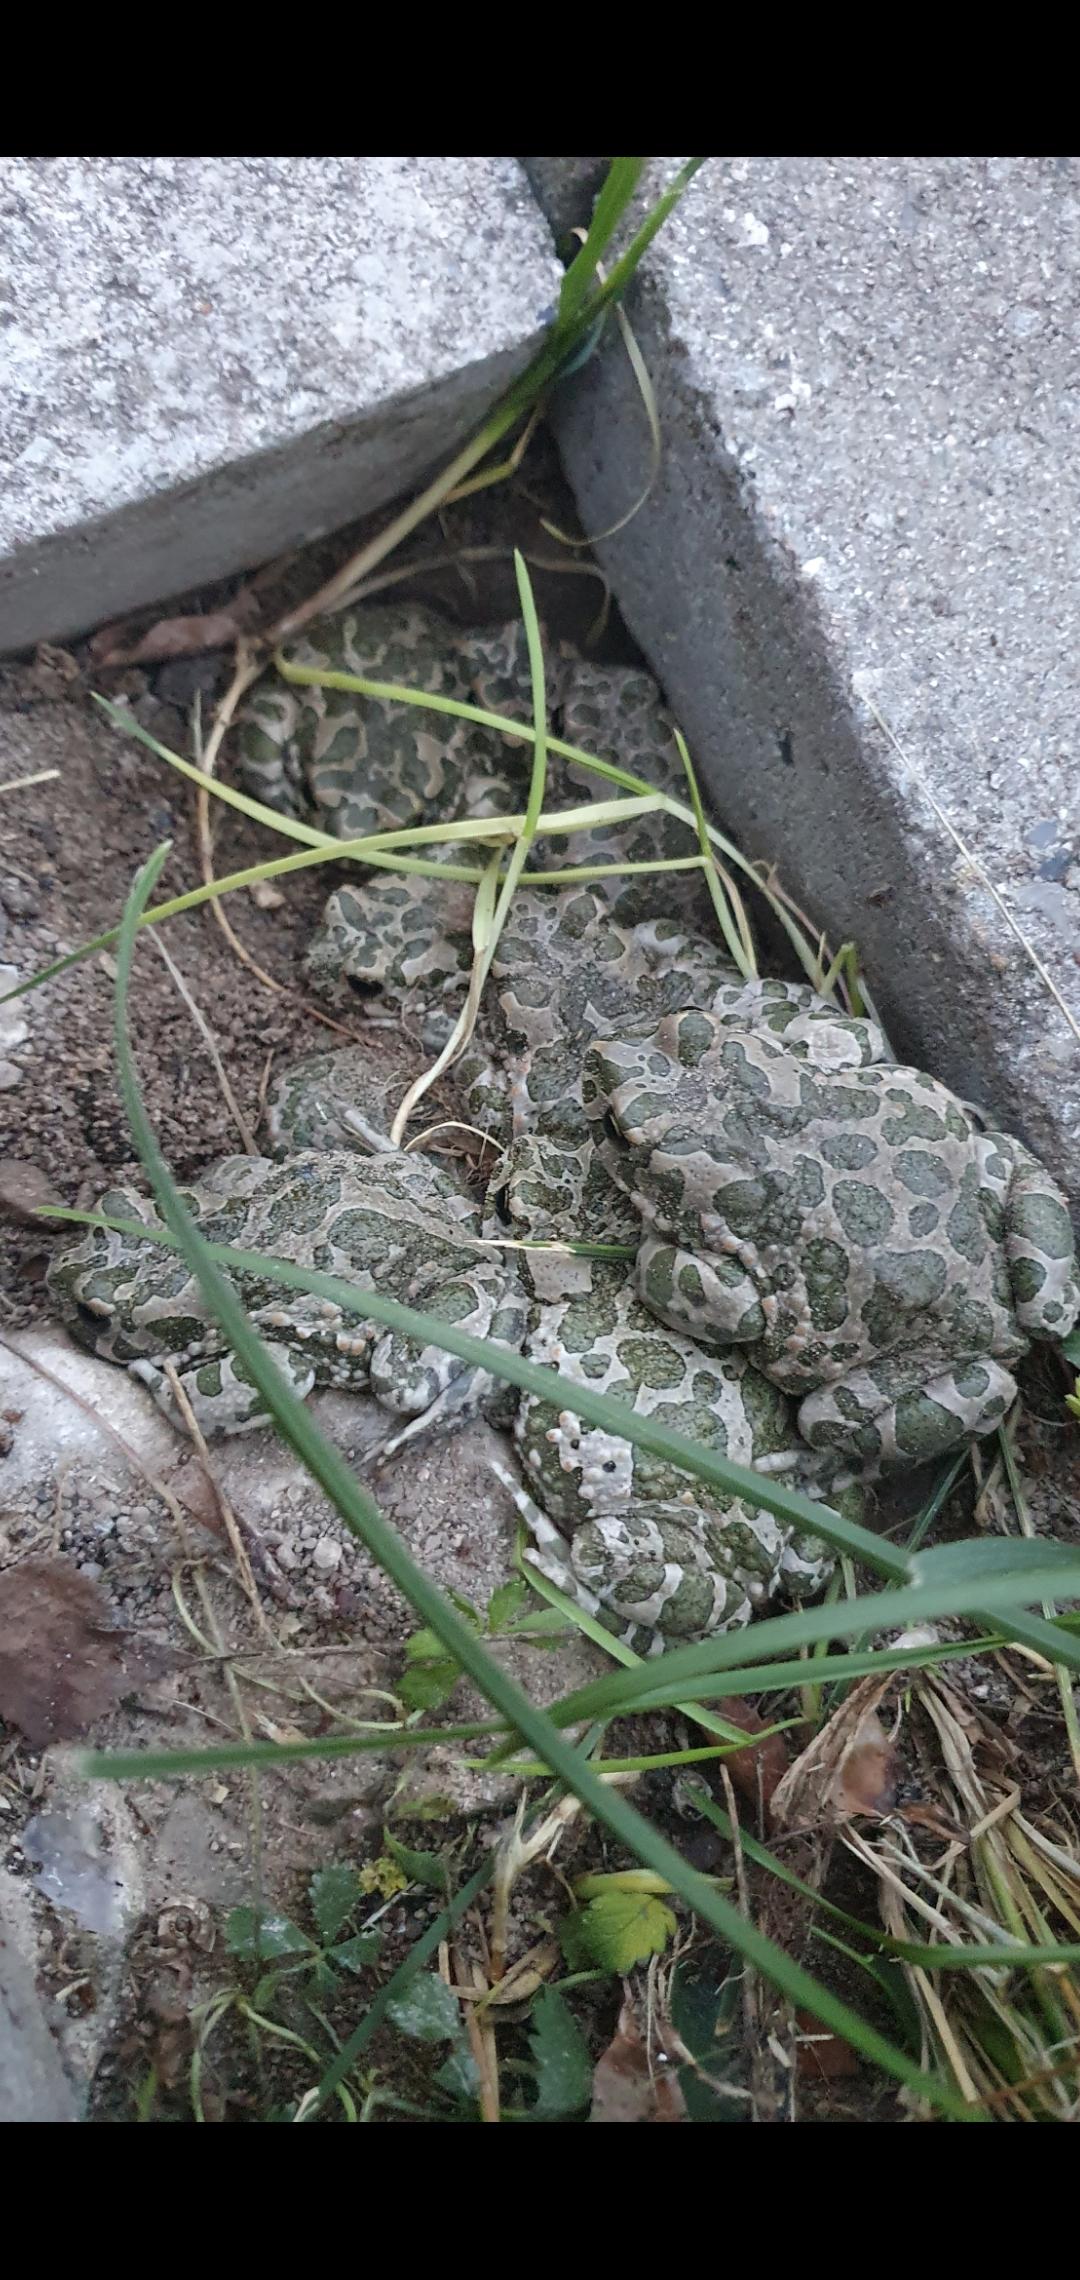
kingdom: Animalia
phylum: Chordata
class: Amphibia
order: Anura
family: Bufonidae
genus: Bufotes
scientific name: Bufotes viridis
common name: Grønbroget tudse
